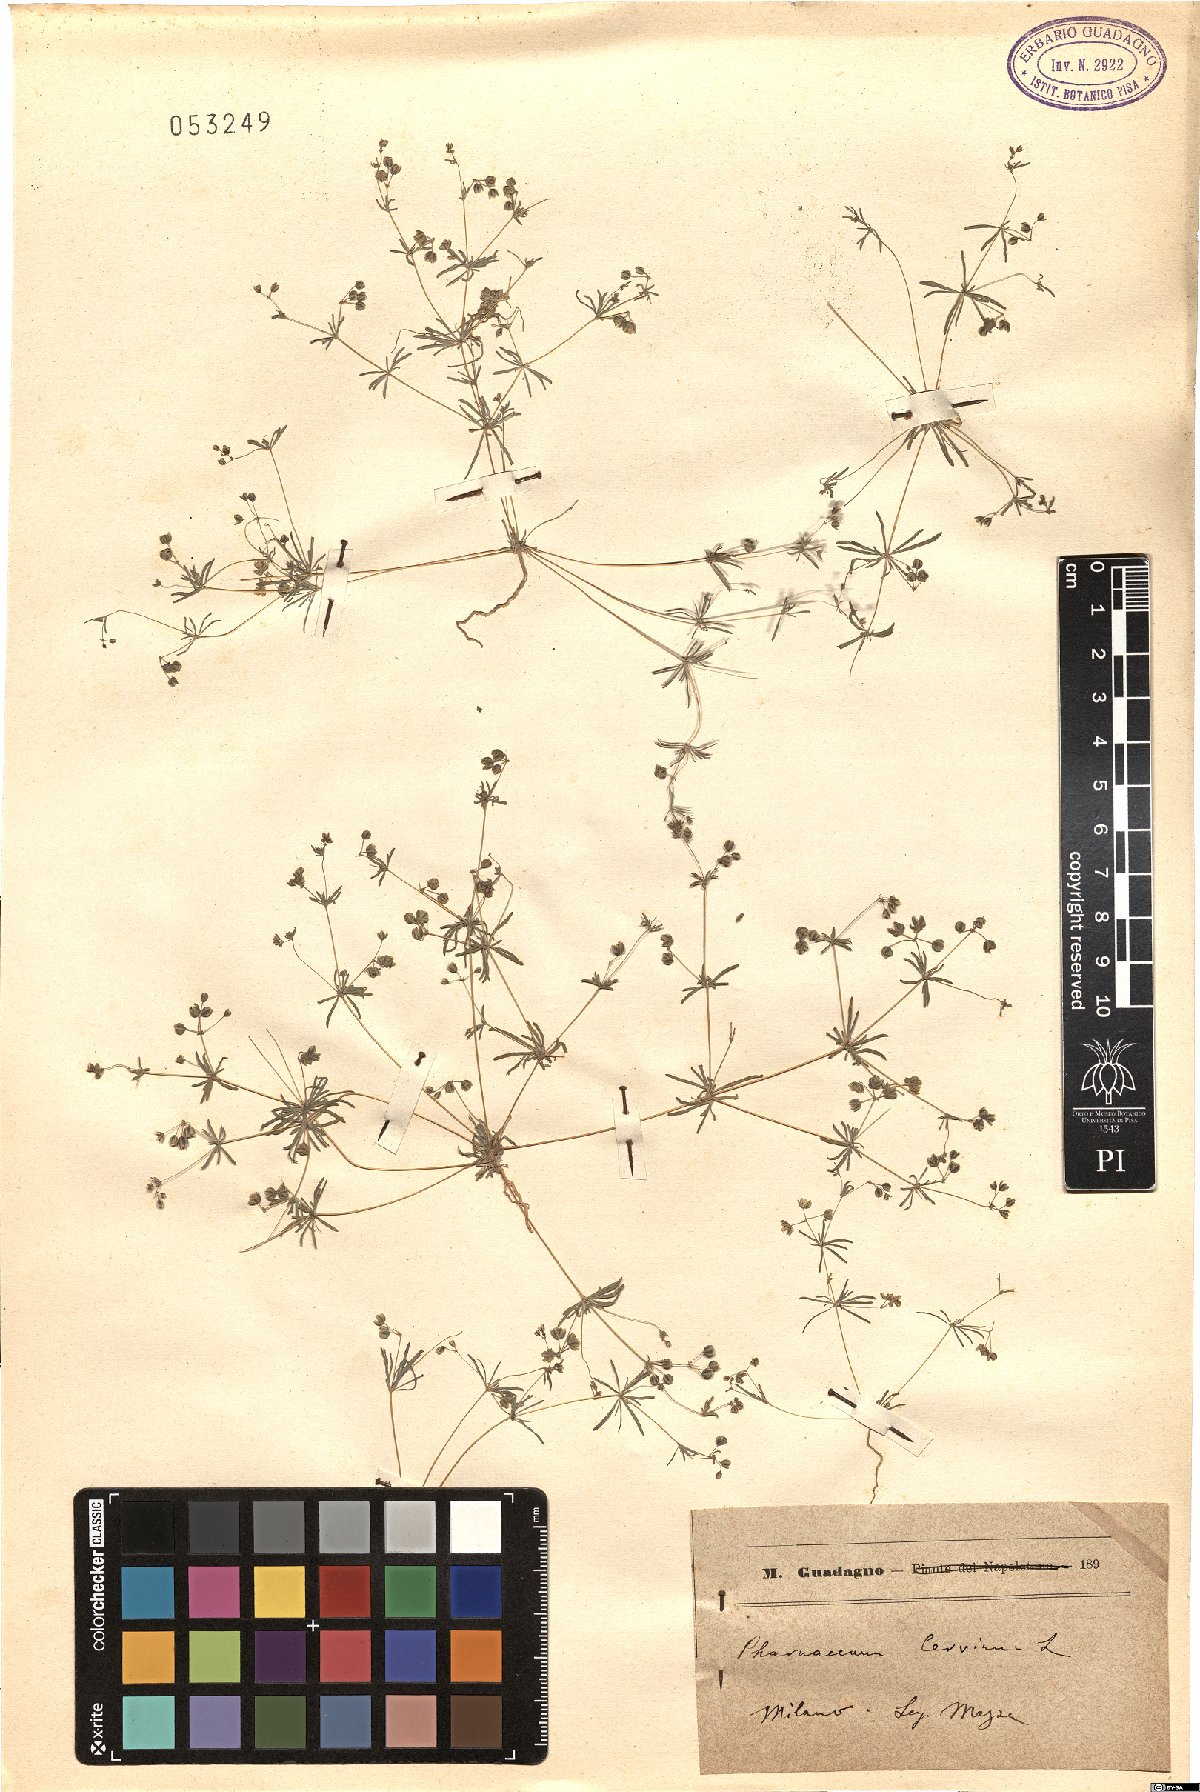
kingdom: Plantae
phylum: Tracheophyta
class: Magnoliopsida
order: Caryophyllales
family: Molluginaceae
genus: Hypertelis
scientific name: Hypertelis cerviana
